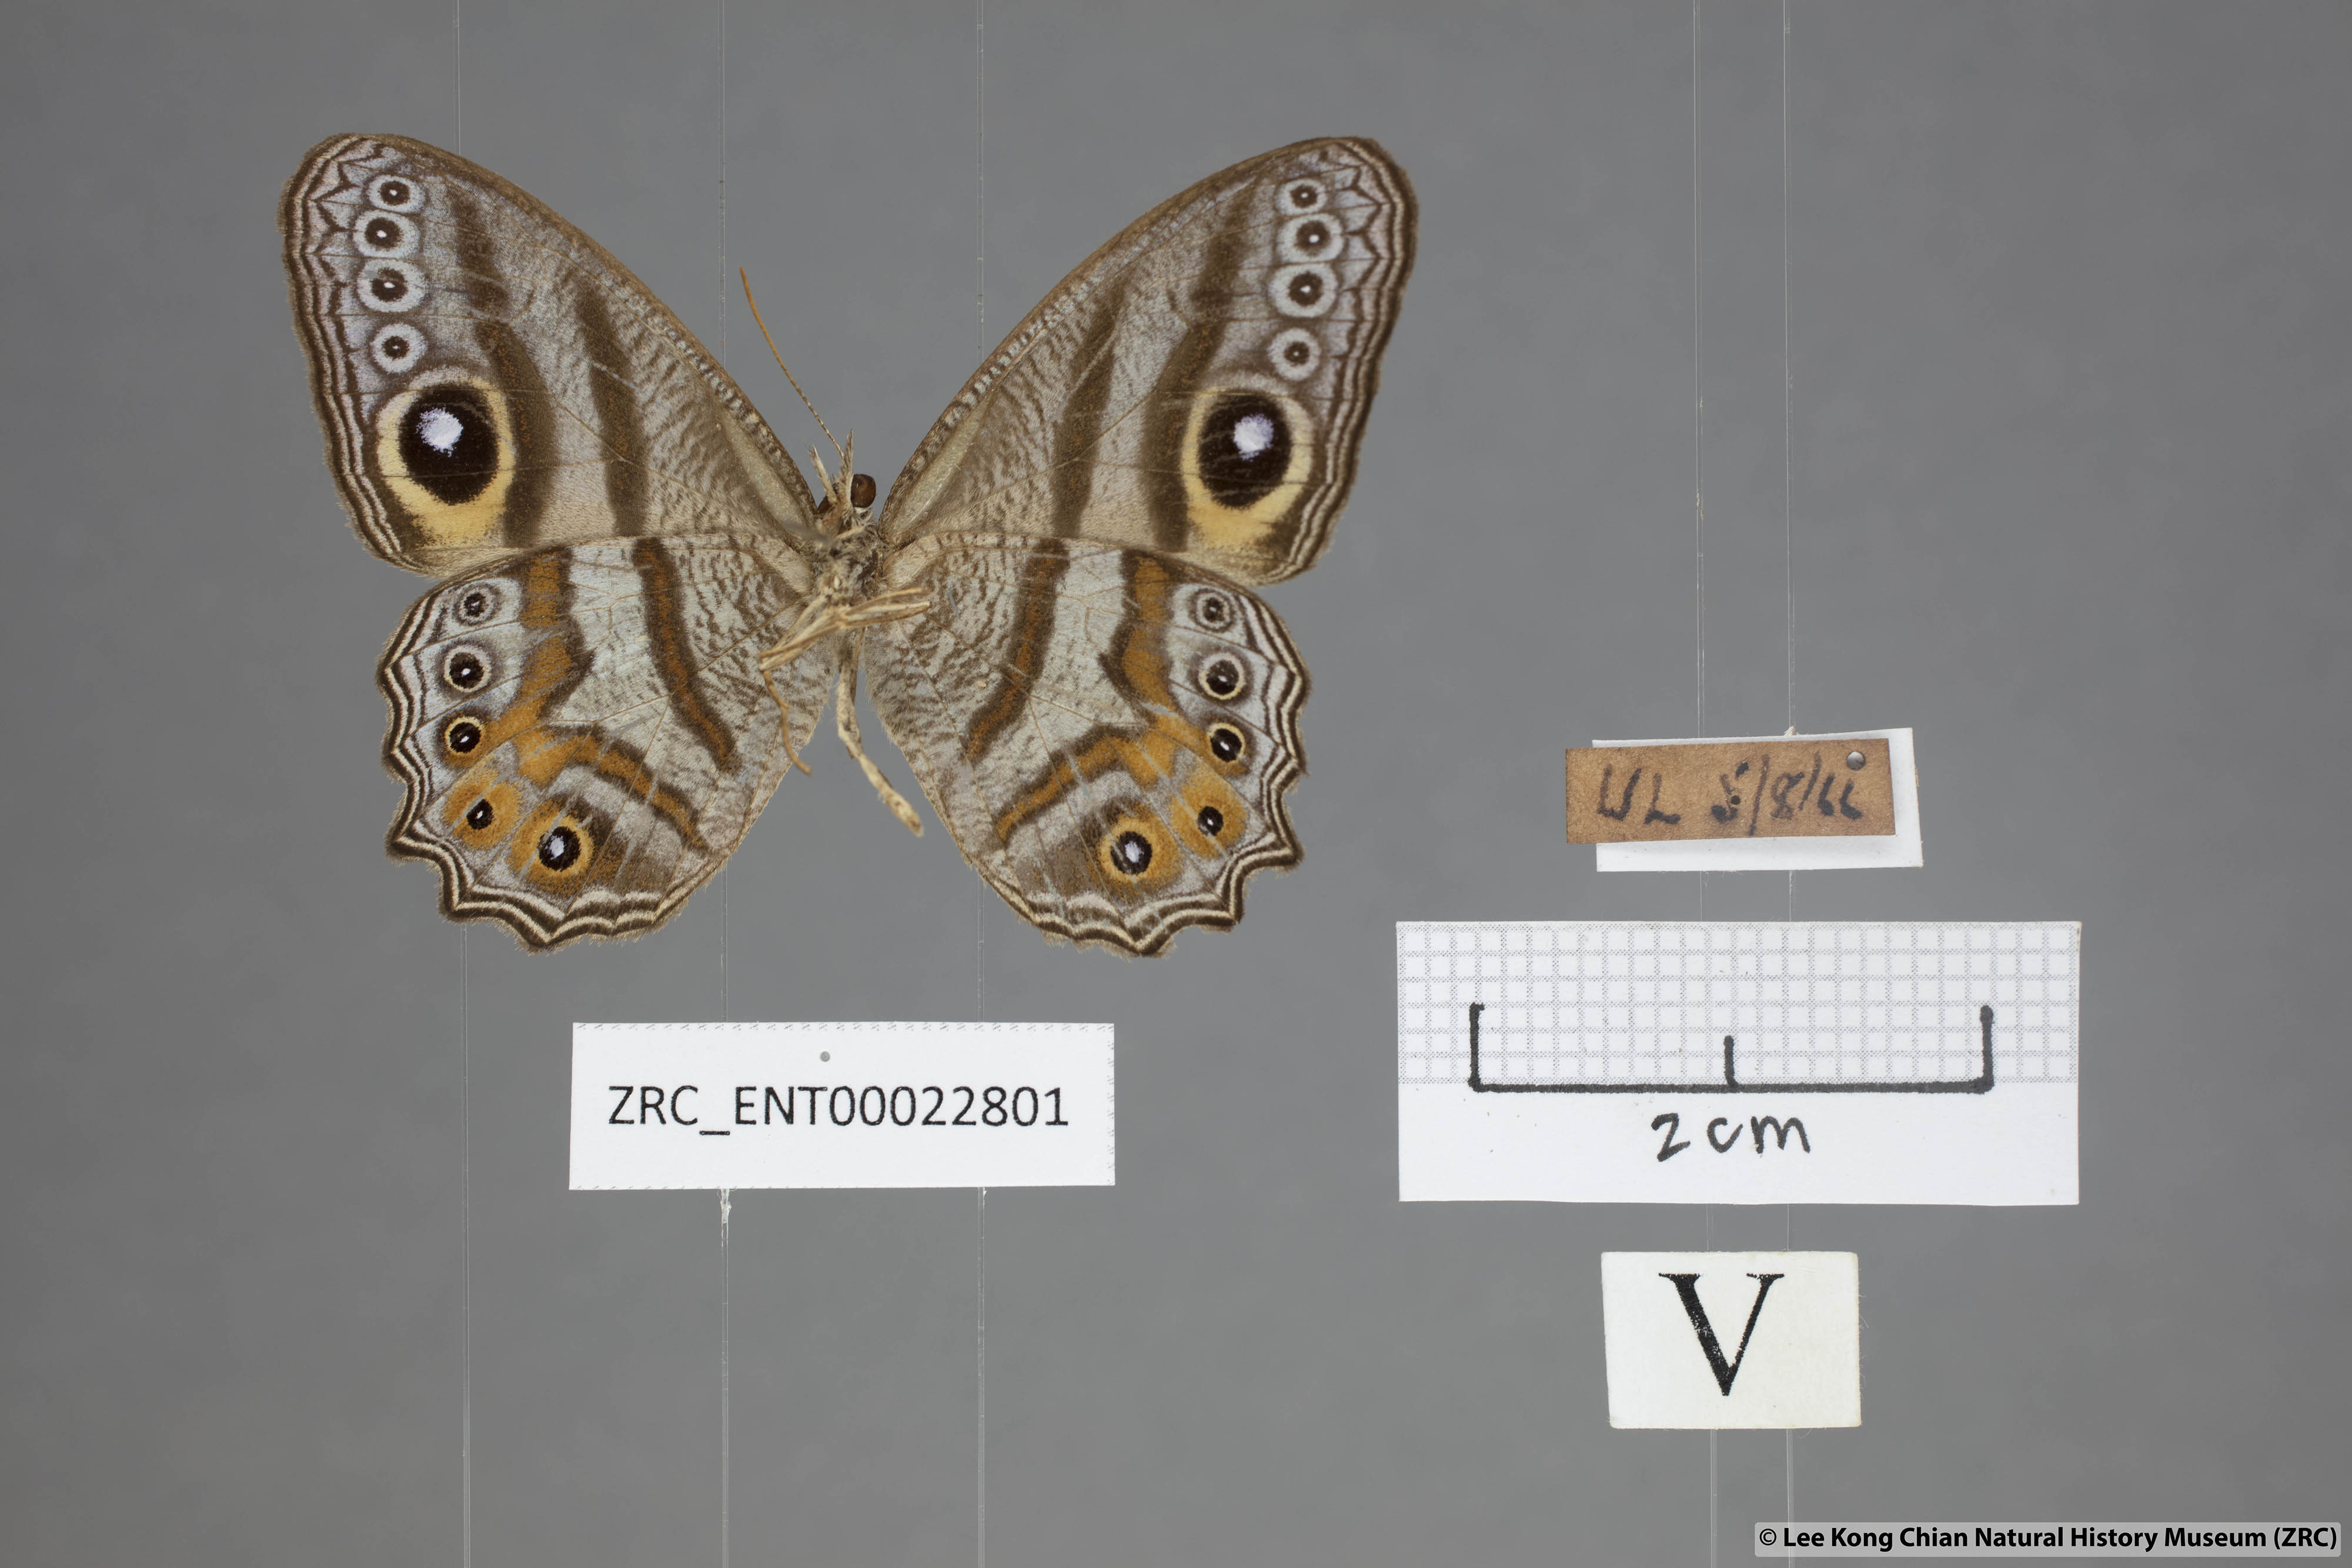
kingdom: Animalia
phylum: Arthropoda
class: Insecta
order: Lepidoptera
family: Nymphalidae
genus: Erites
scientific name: Erites argentina
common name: Eyed cyclops
